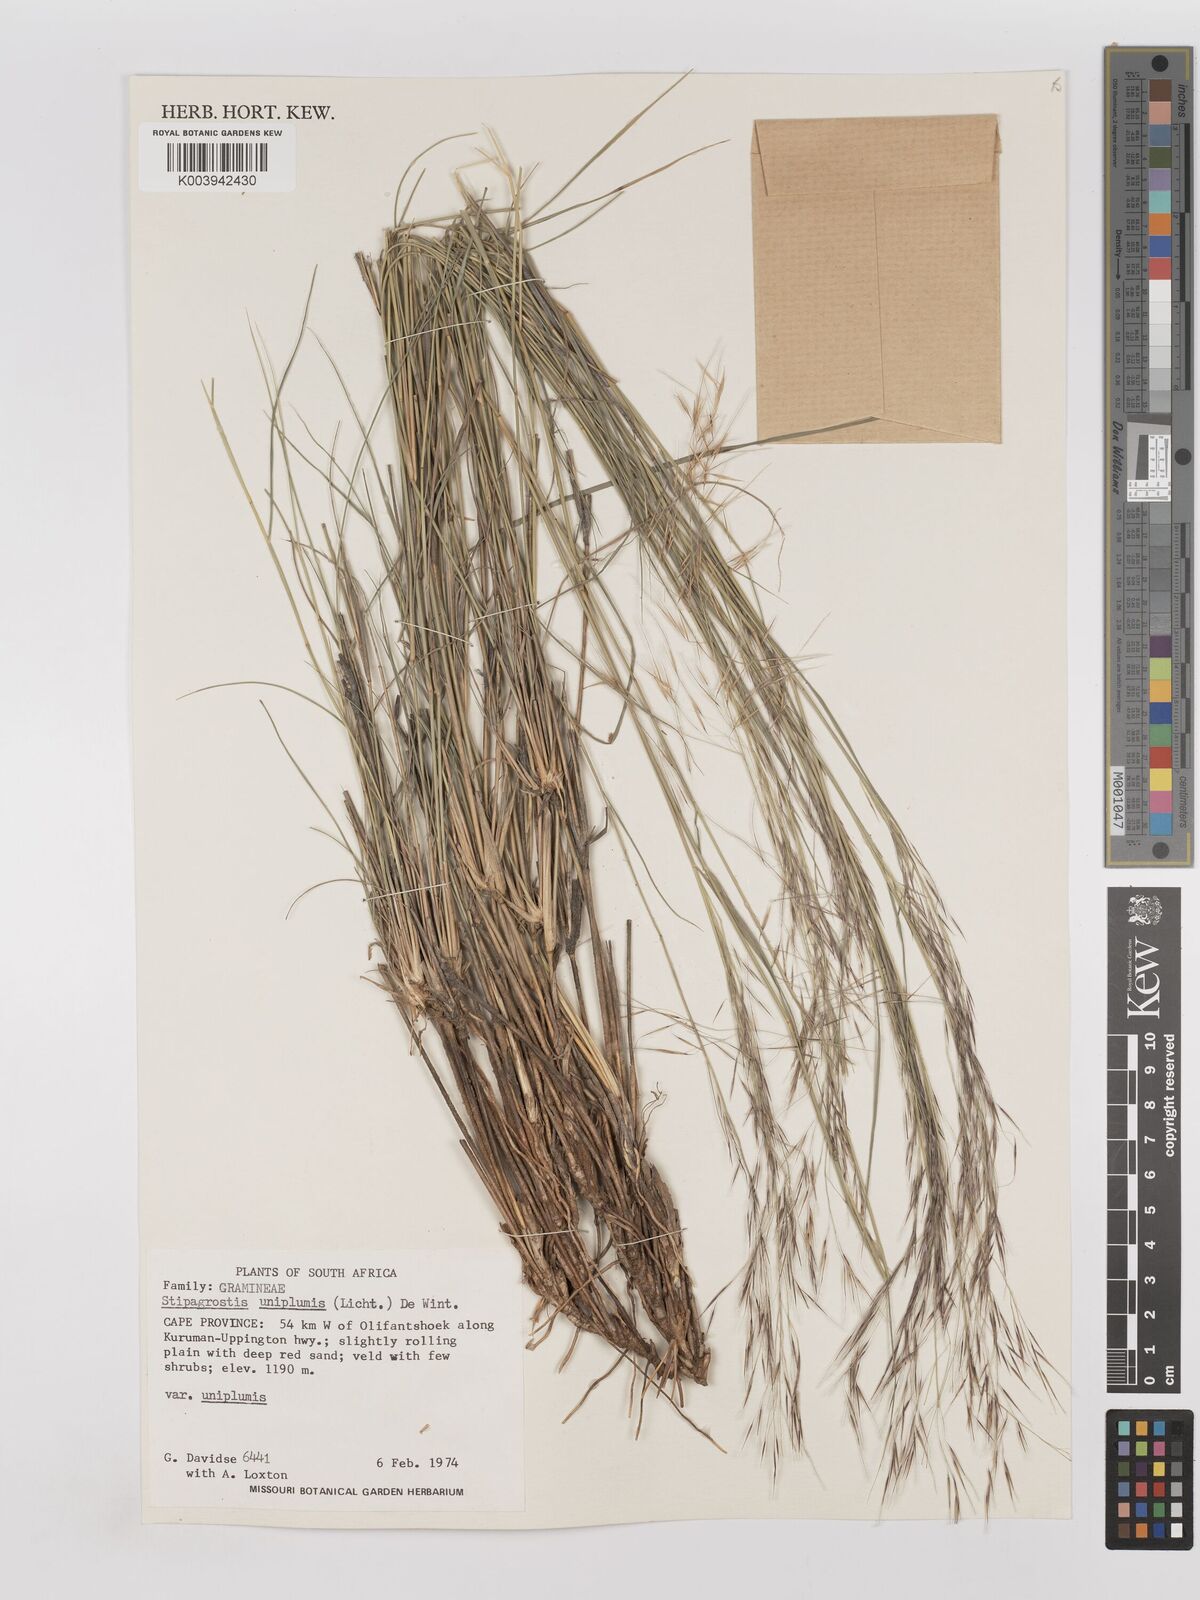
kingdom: Plantae
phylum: Tracheophyta
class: Liliopsida
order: Poales
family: Poaceae
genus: Stipagrostis
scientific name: Stipagrostis uniplumis
